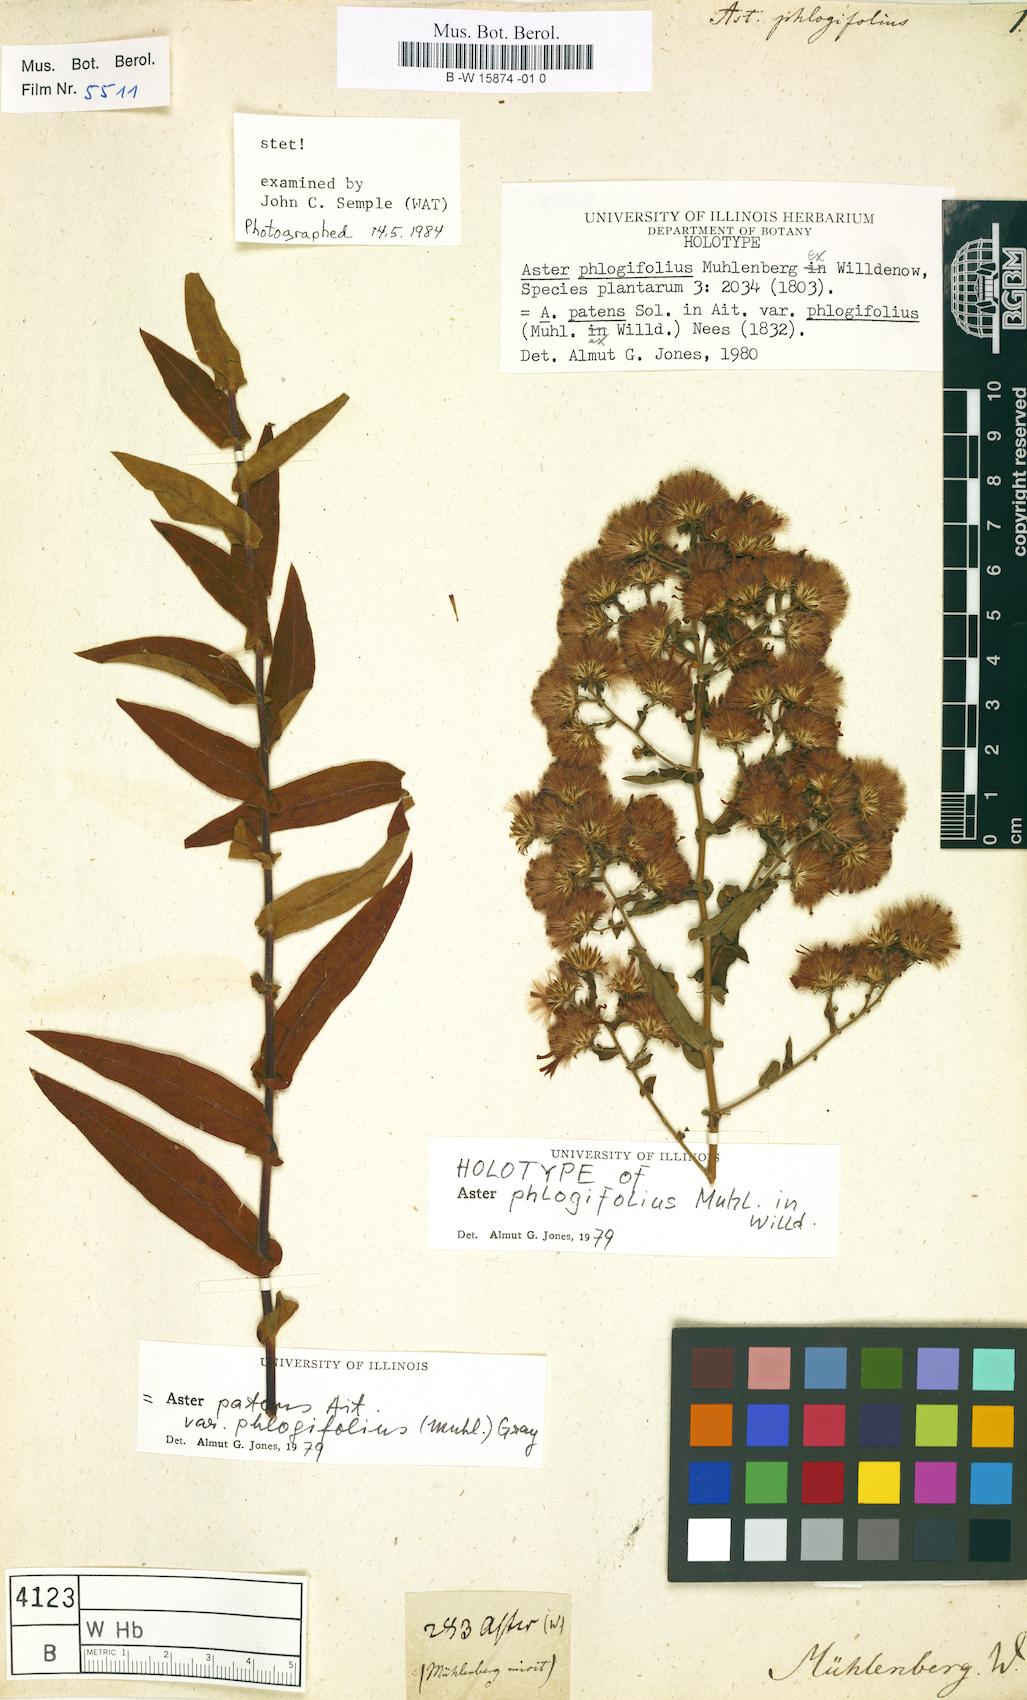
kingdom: Plantae
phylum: Tracheophyta
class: Magnoliopsida
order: Asterales
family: Asteraceae
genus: Symphyotrichum
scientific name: Symphyotrichum phlogifolium
